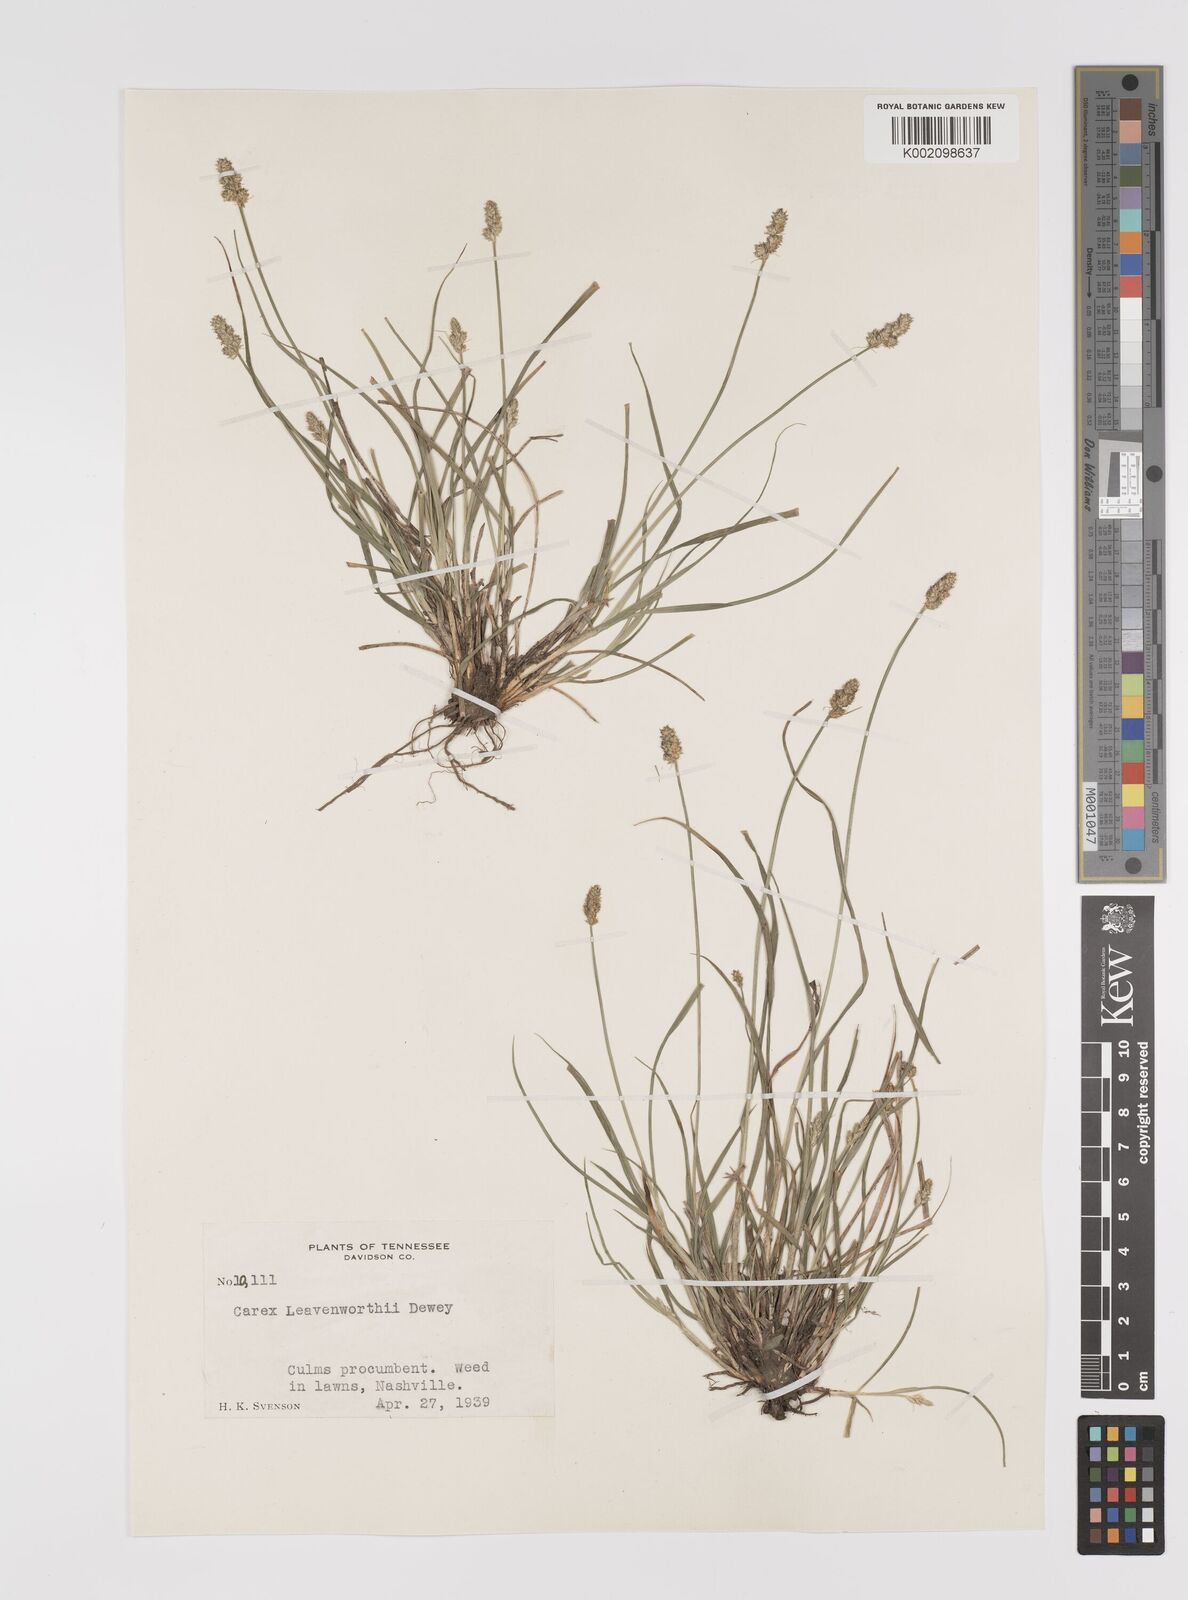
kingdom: Plantae
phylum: Tracheophyta
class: Liliopsida
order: Poales
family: Cyperaceae
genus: Carex
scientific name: Carex leavenworthii
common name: Leavenworth's bracted sedge
